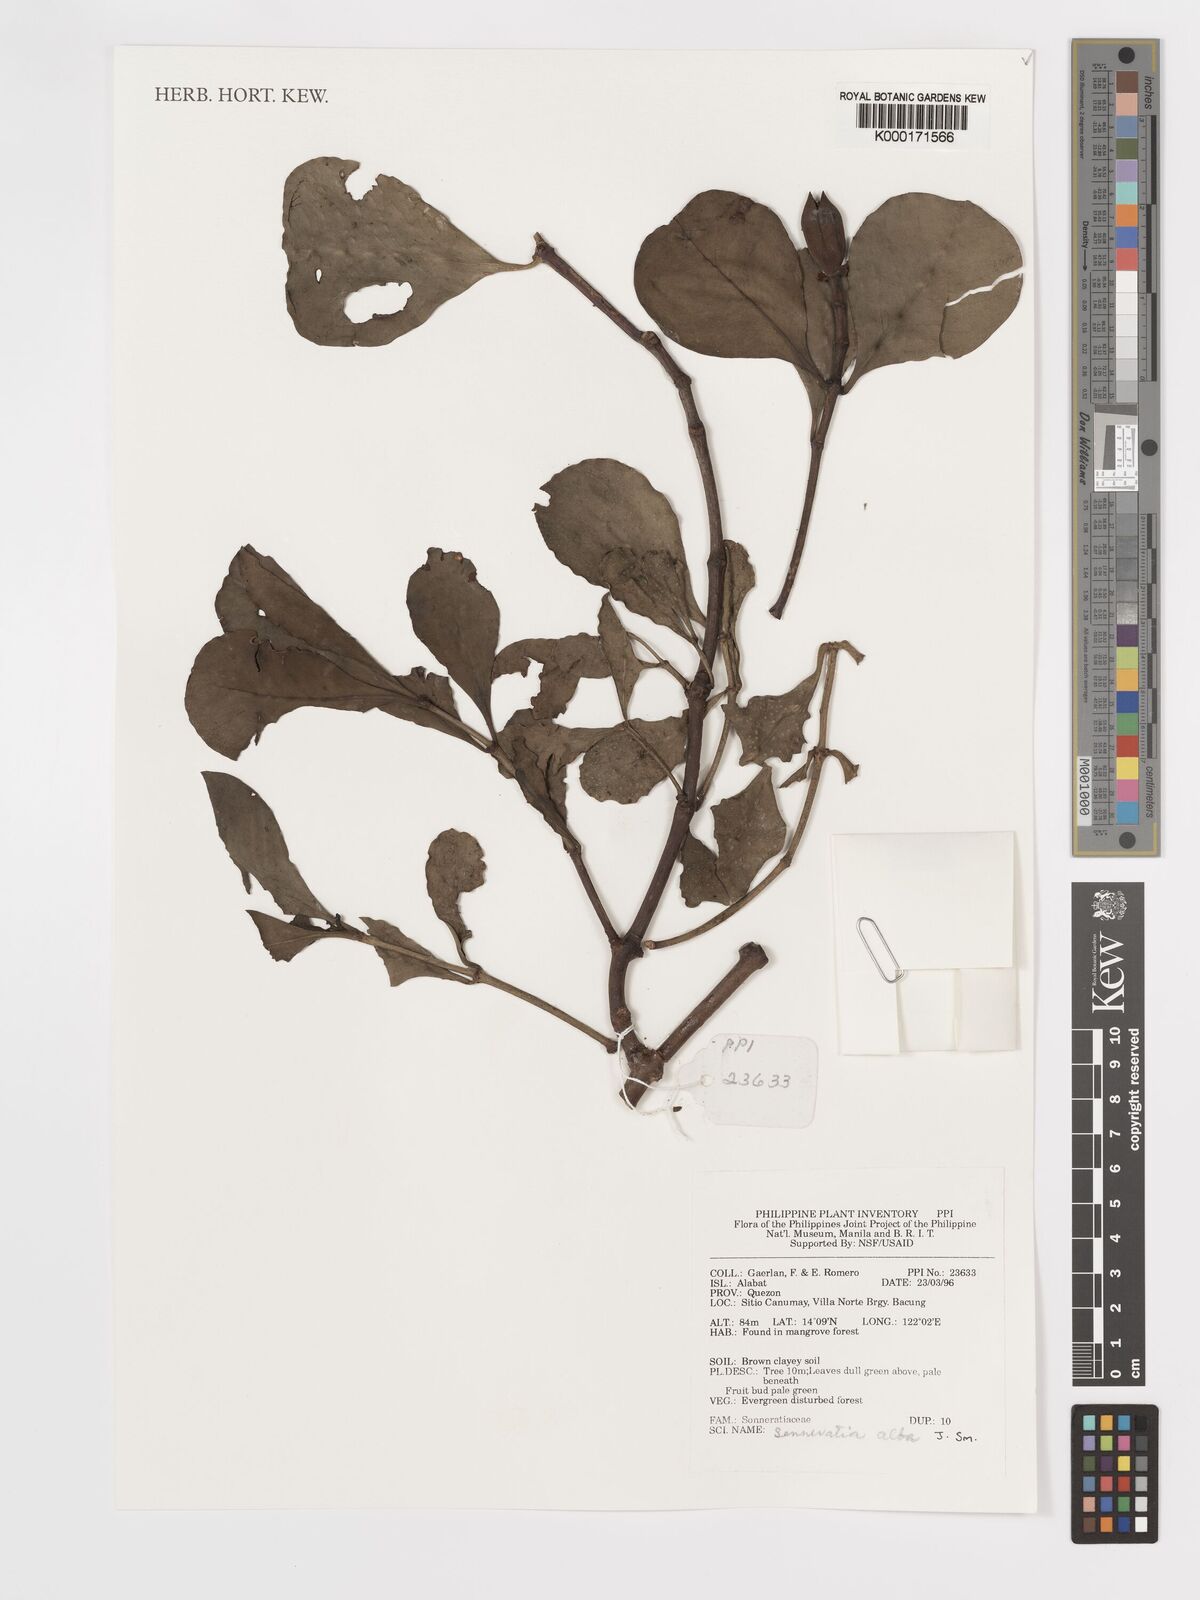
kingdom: Plantae
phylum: Tracheophyta
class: Magnoliopsida
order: Myrtales
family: Lythraceae
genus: Sonneratia
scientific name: Sonneratia alba
